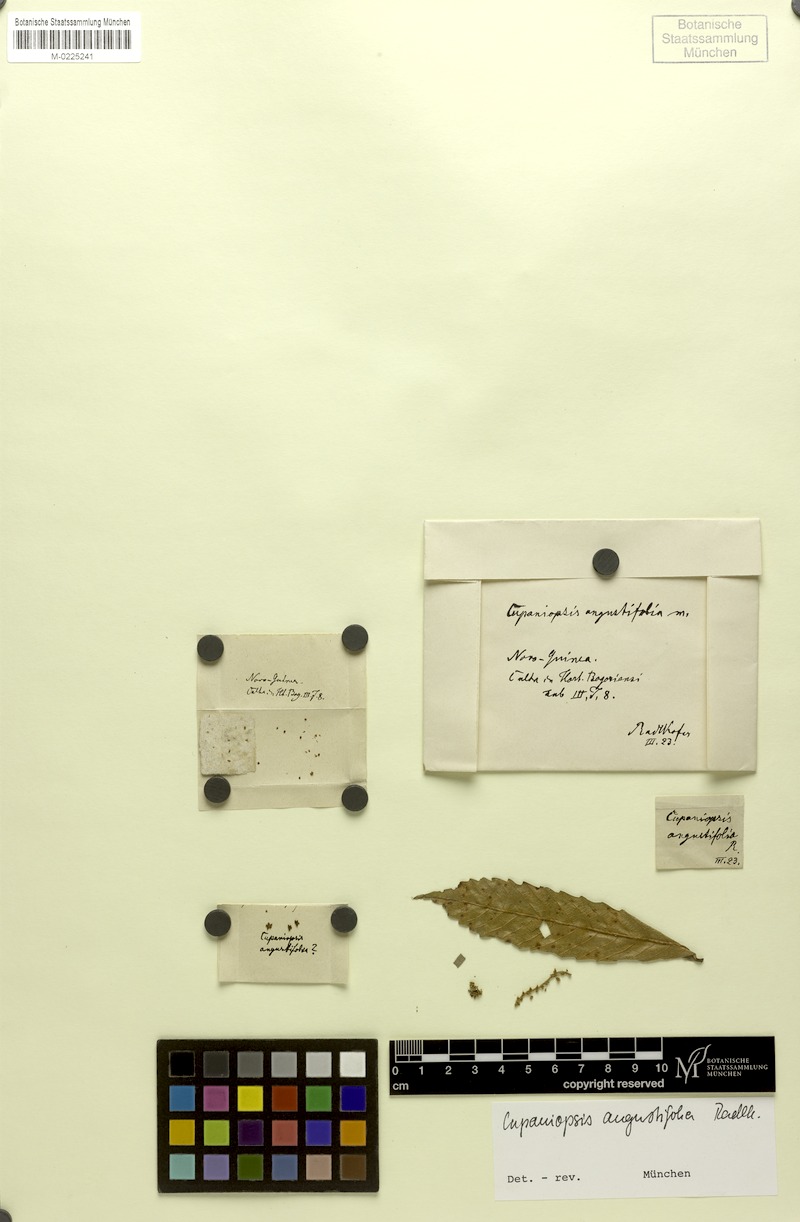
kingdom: Plantae
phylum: Tracheophyta
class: Magnoliopsida
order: Sapindales
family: Sapindaceae
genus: Cupaniopsis
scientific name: Cupaniopsis curvidens
